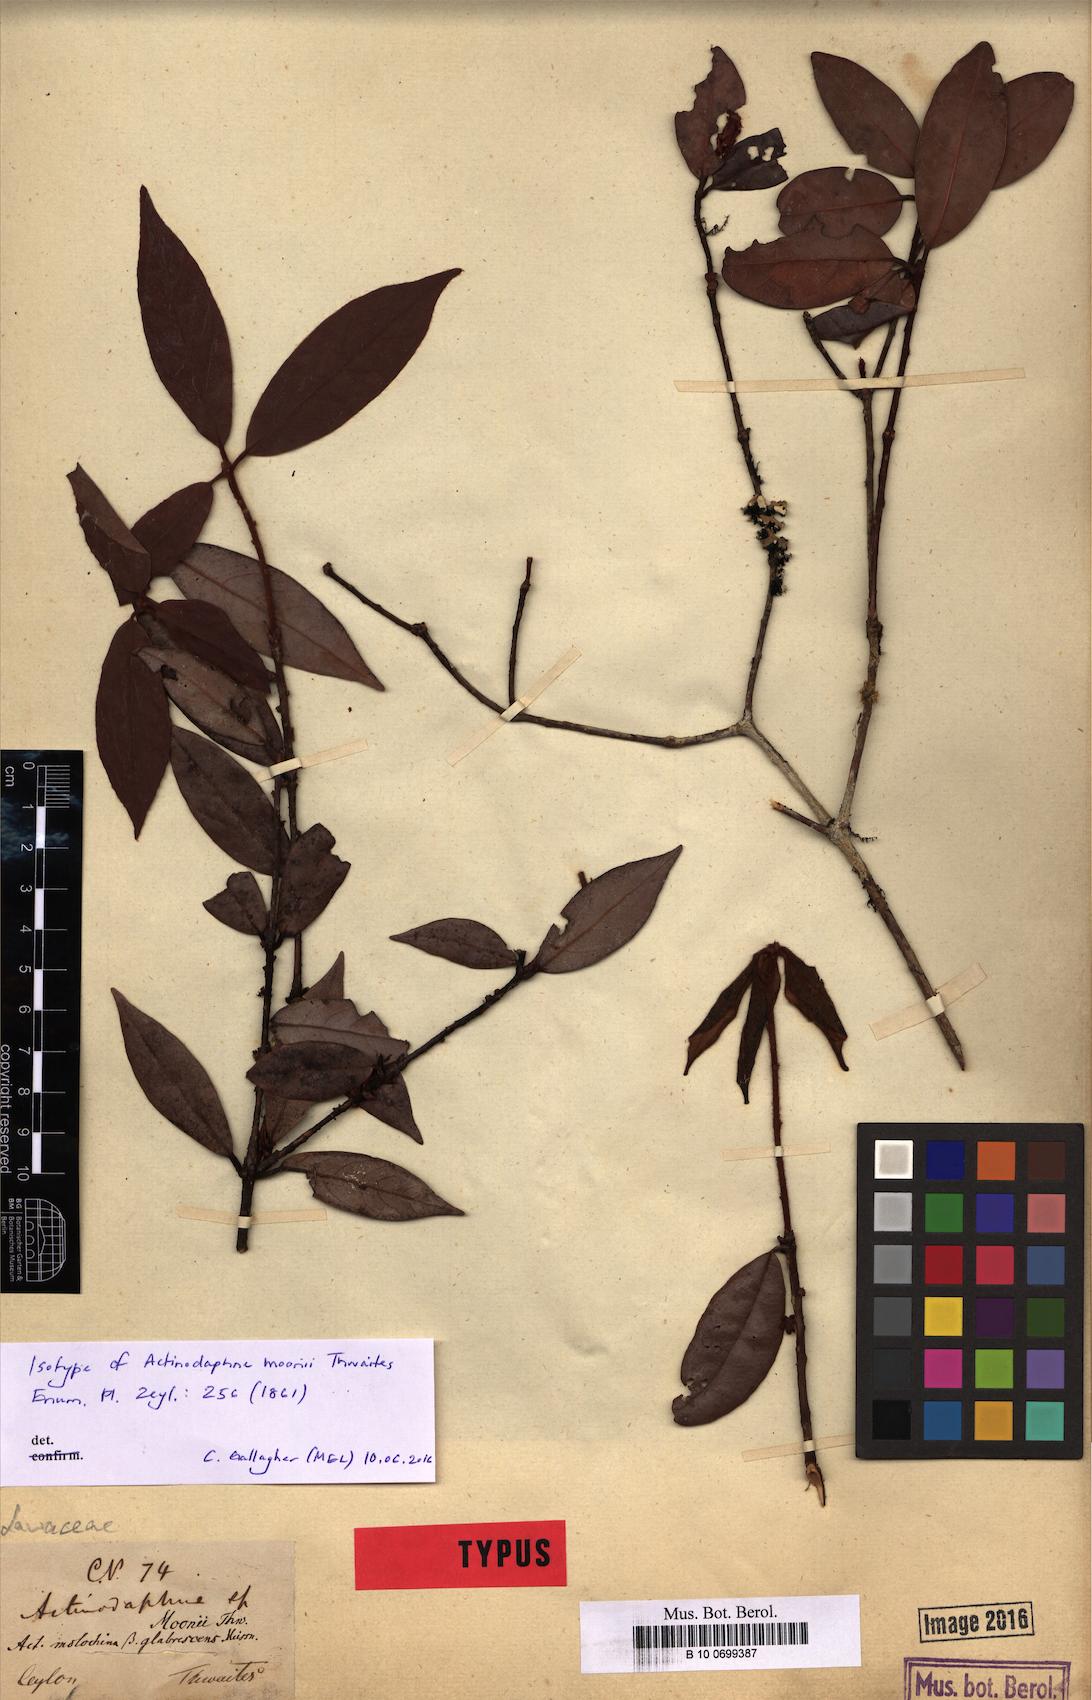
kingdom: Plantae
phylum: Tracheophyta
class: Magnoliopsida
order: Laurales
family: Lauraceae
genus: Actinodaphne
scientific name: Actinodaphne molochina
